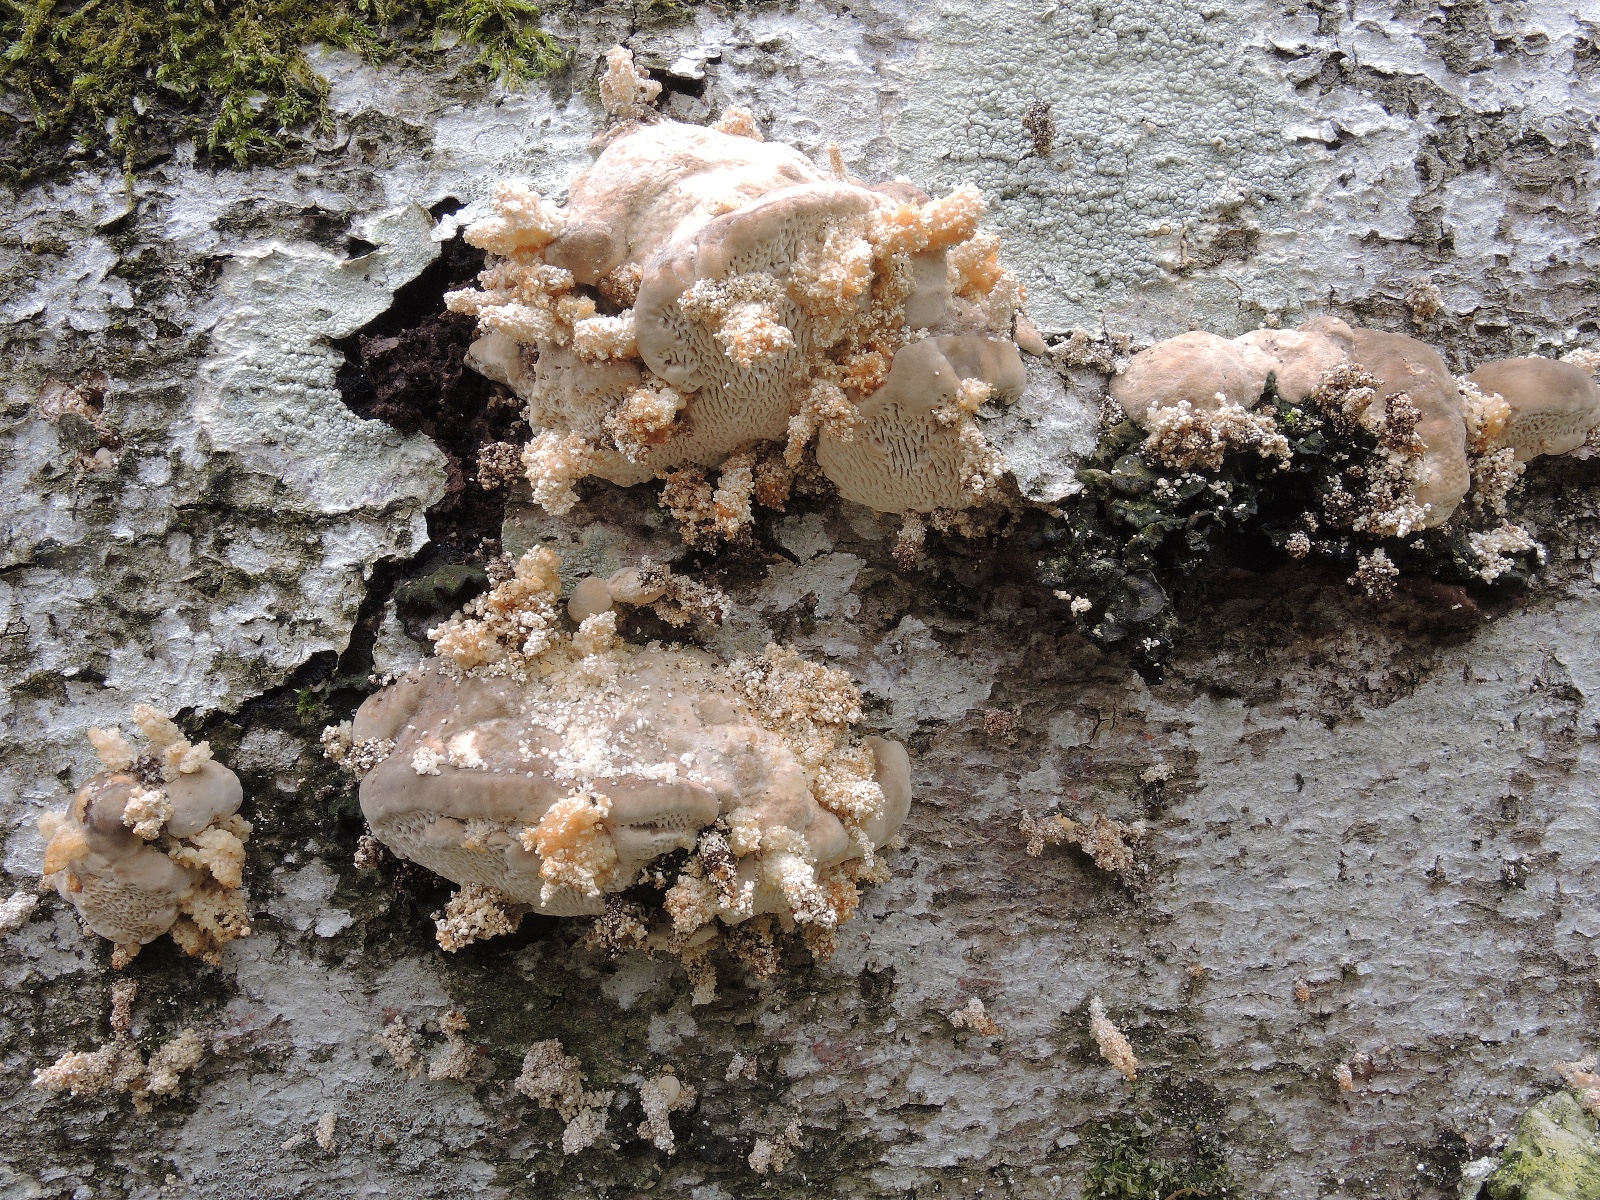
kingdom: Fungi
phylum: Basidiomycota
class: Agaricomycetes
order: Polyporales
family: Polyporaceae
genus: Trametes
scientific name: Trametes gibbosa
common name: puklet læderporesvamp
